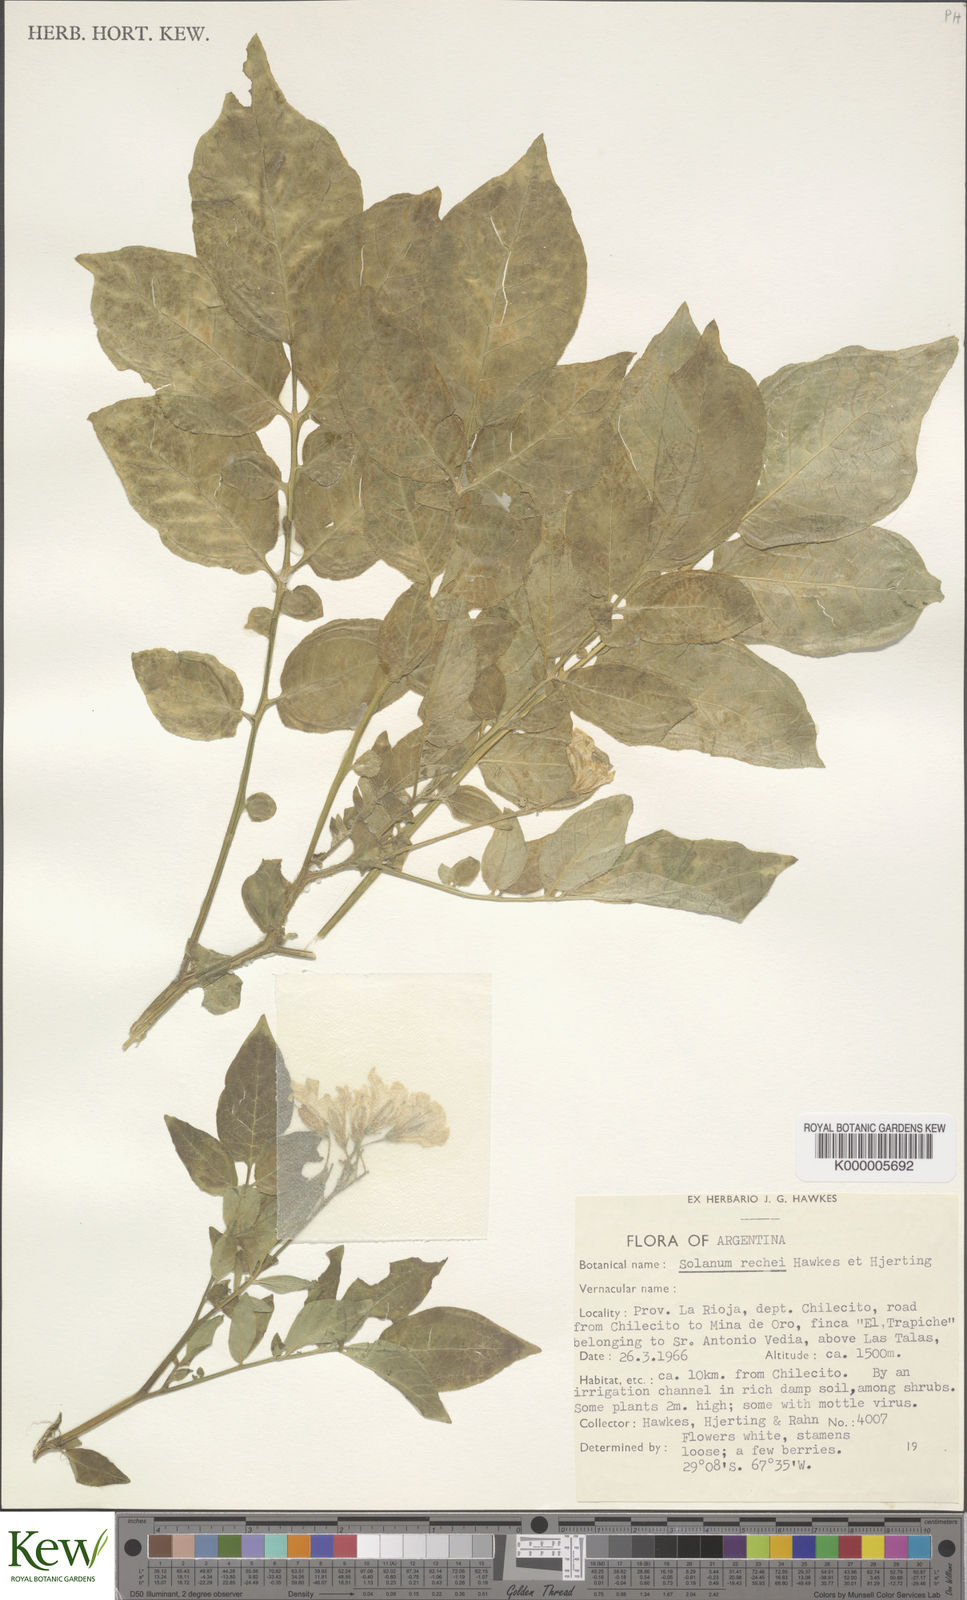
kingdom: Plantae
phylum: Tracheophyta
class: Magnoliopsida
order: Solanales
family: Solanaceae
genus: Solanum
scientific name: Solanum rechei
